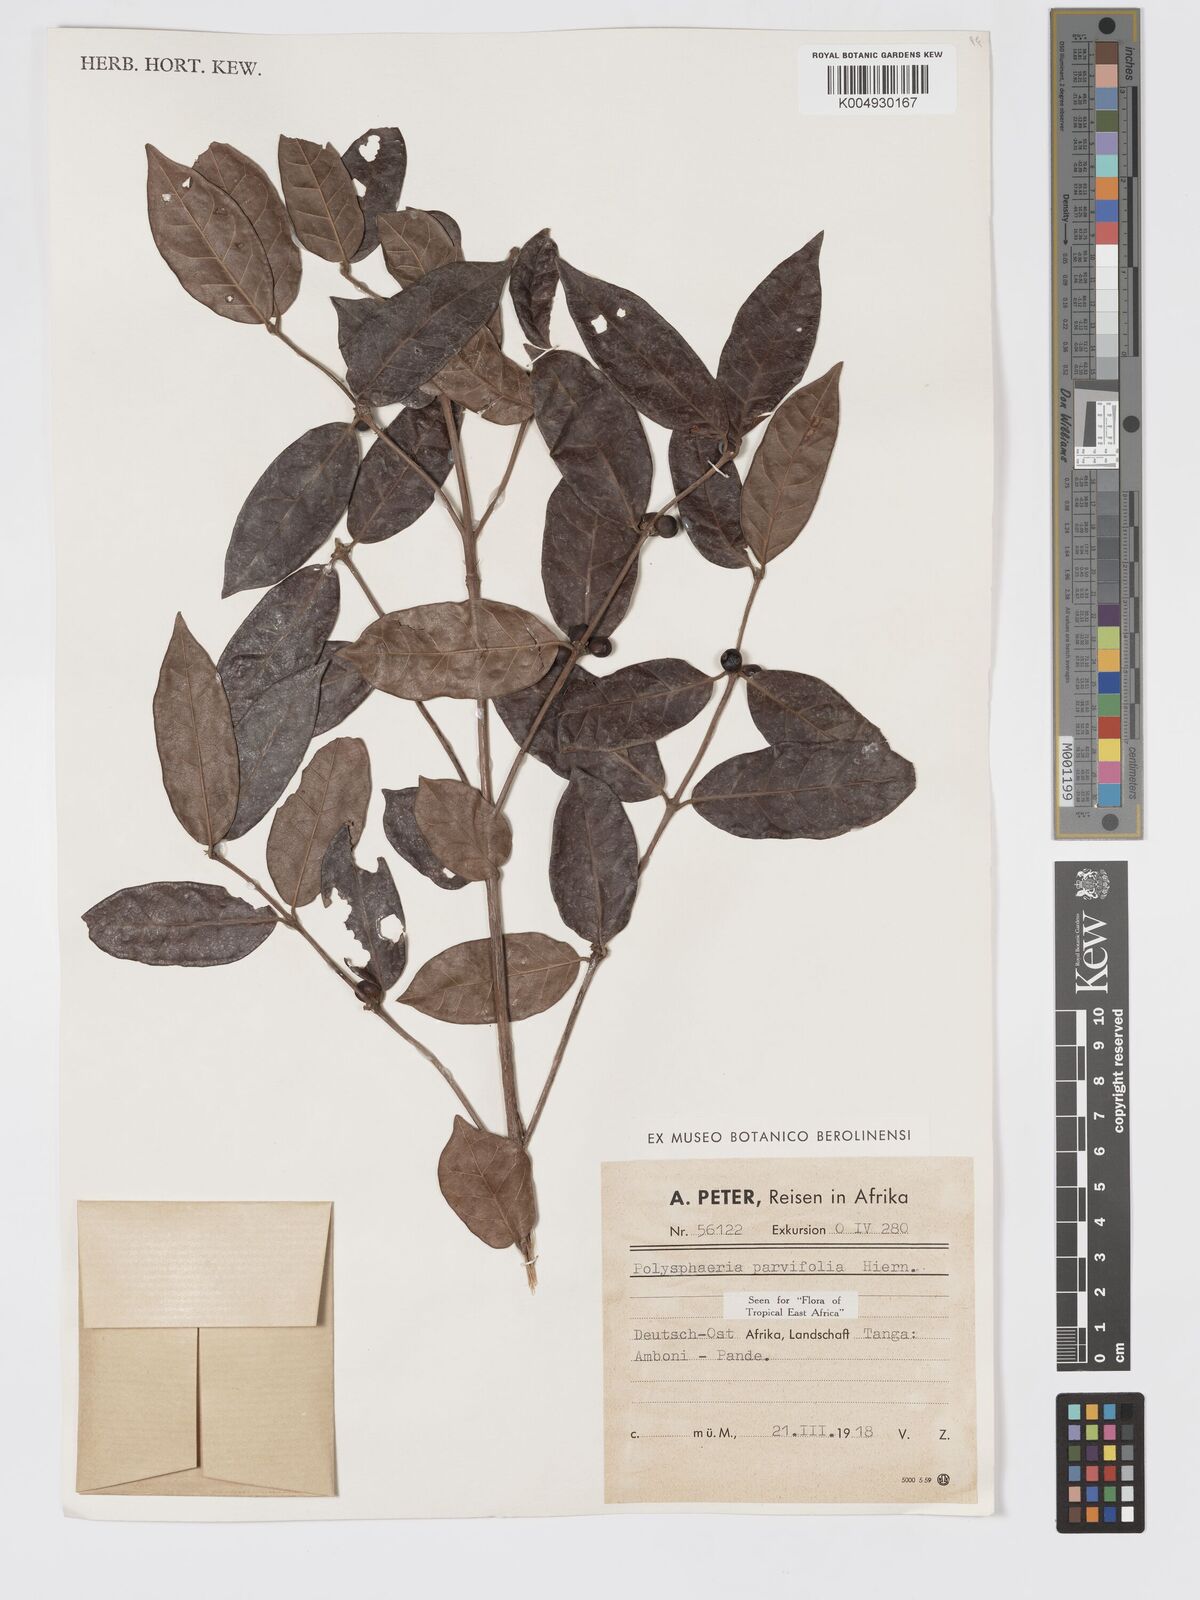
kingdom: Plantae
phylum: Tracheophyta
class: Magnoliopsida
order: Gentianales
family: Rubiaceae
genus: Polysphaeria
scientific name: Polysphaeria parvifolia
